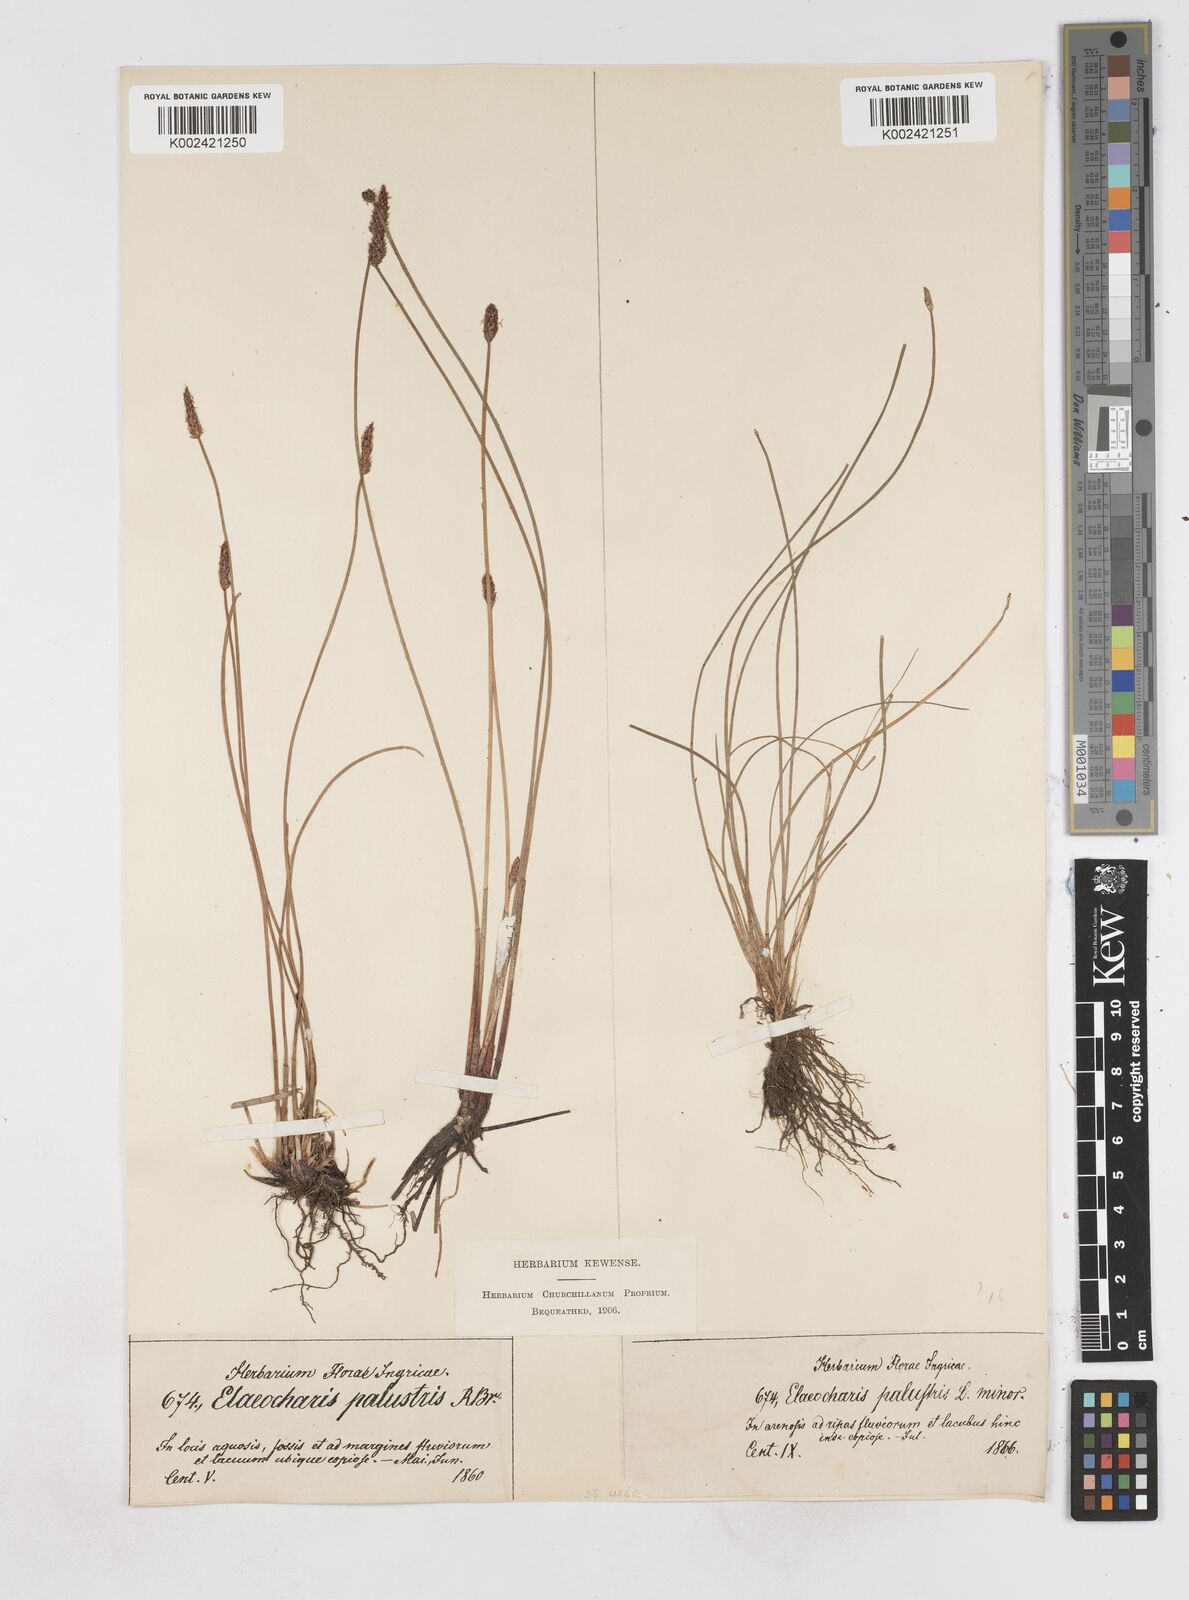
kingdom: Plantae
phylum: Tracheophyta
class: Liliopsida
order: Poales
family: Cyperaceae
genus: Eleocharis
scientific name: Eleocharis palustris
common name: Common spike-rush
